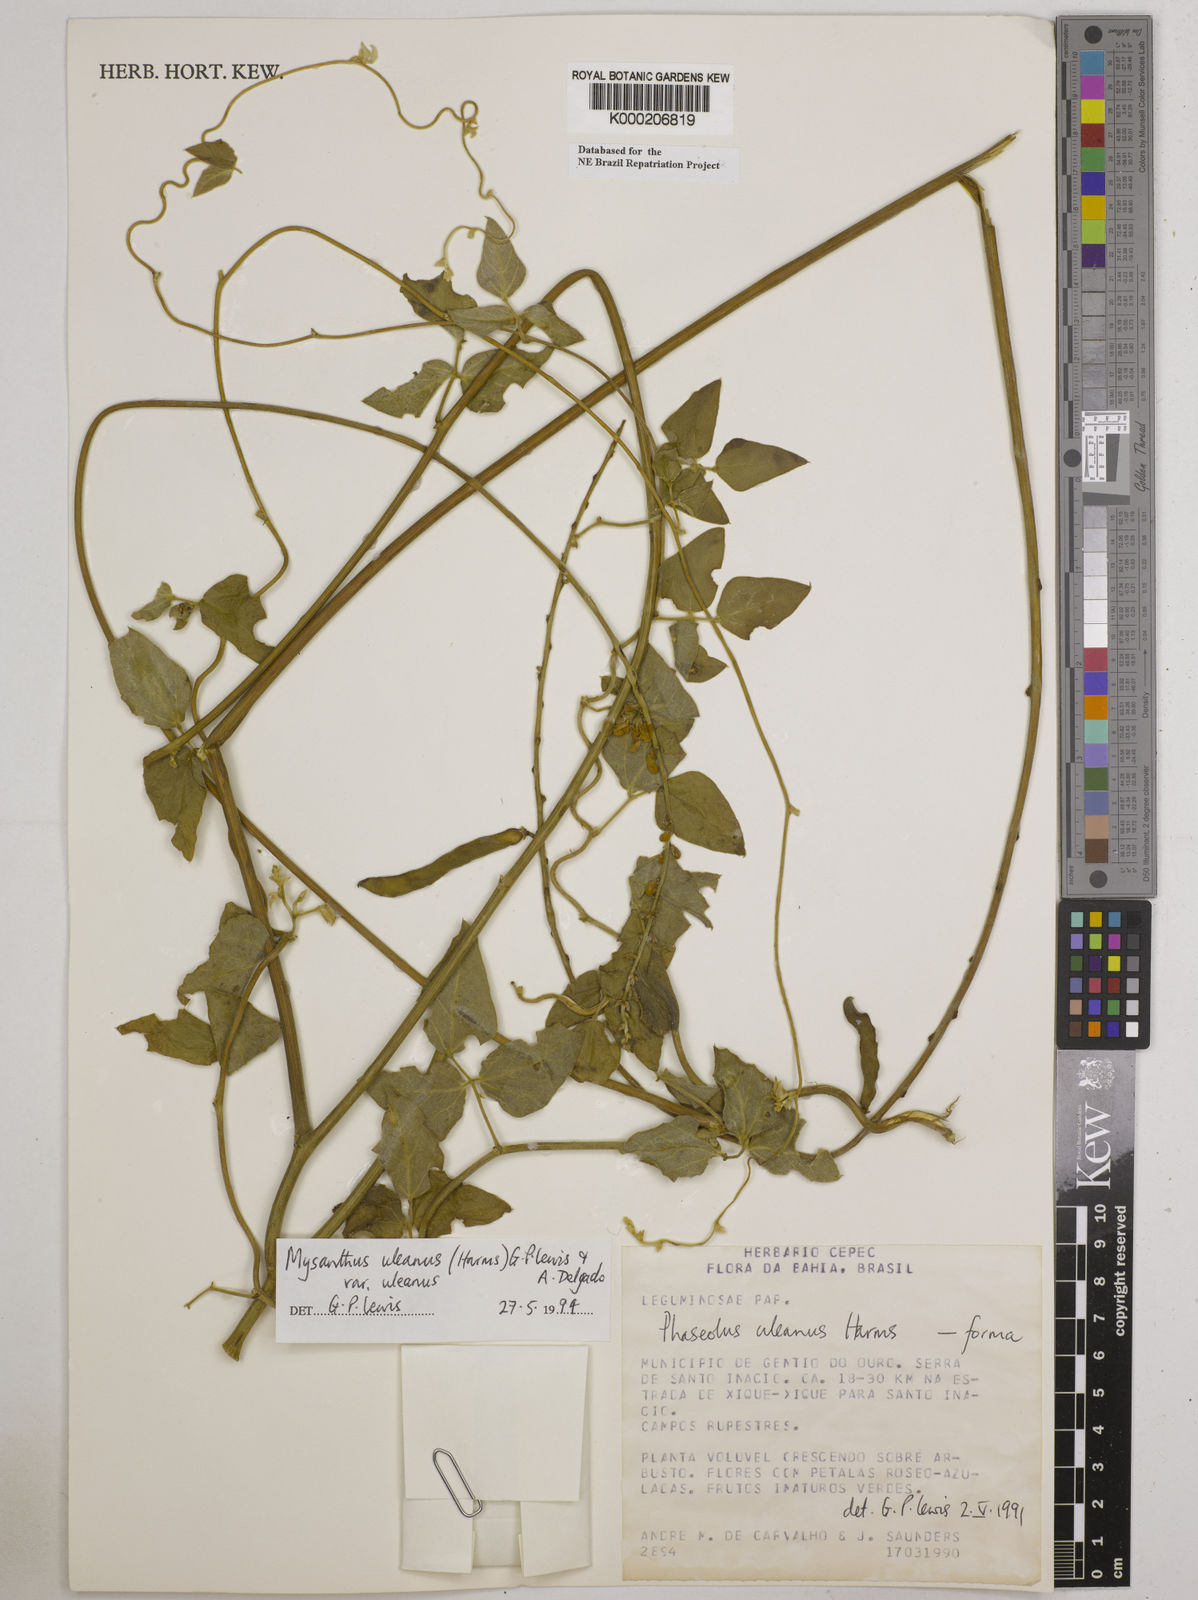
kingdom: Plantae
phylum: Tracheophyta
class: Magnoliopsida
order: Fabales
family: Fabaceae
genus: Mysanthus
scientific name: Mysanthus uleanus
